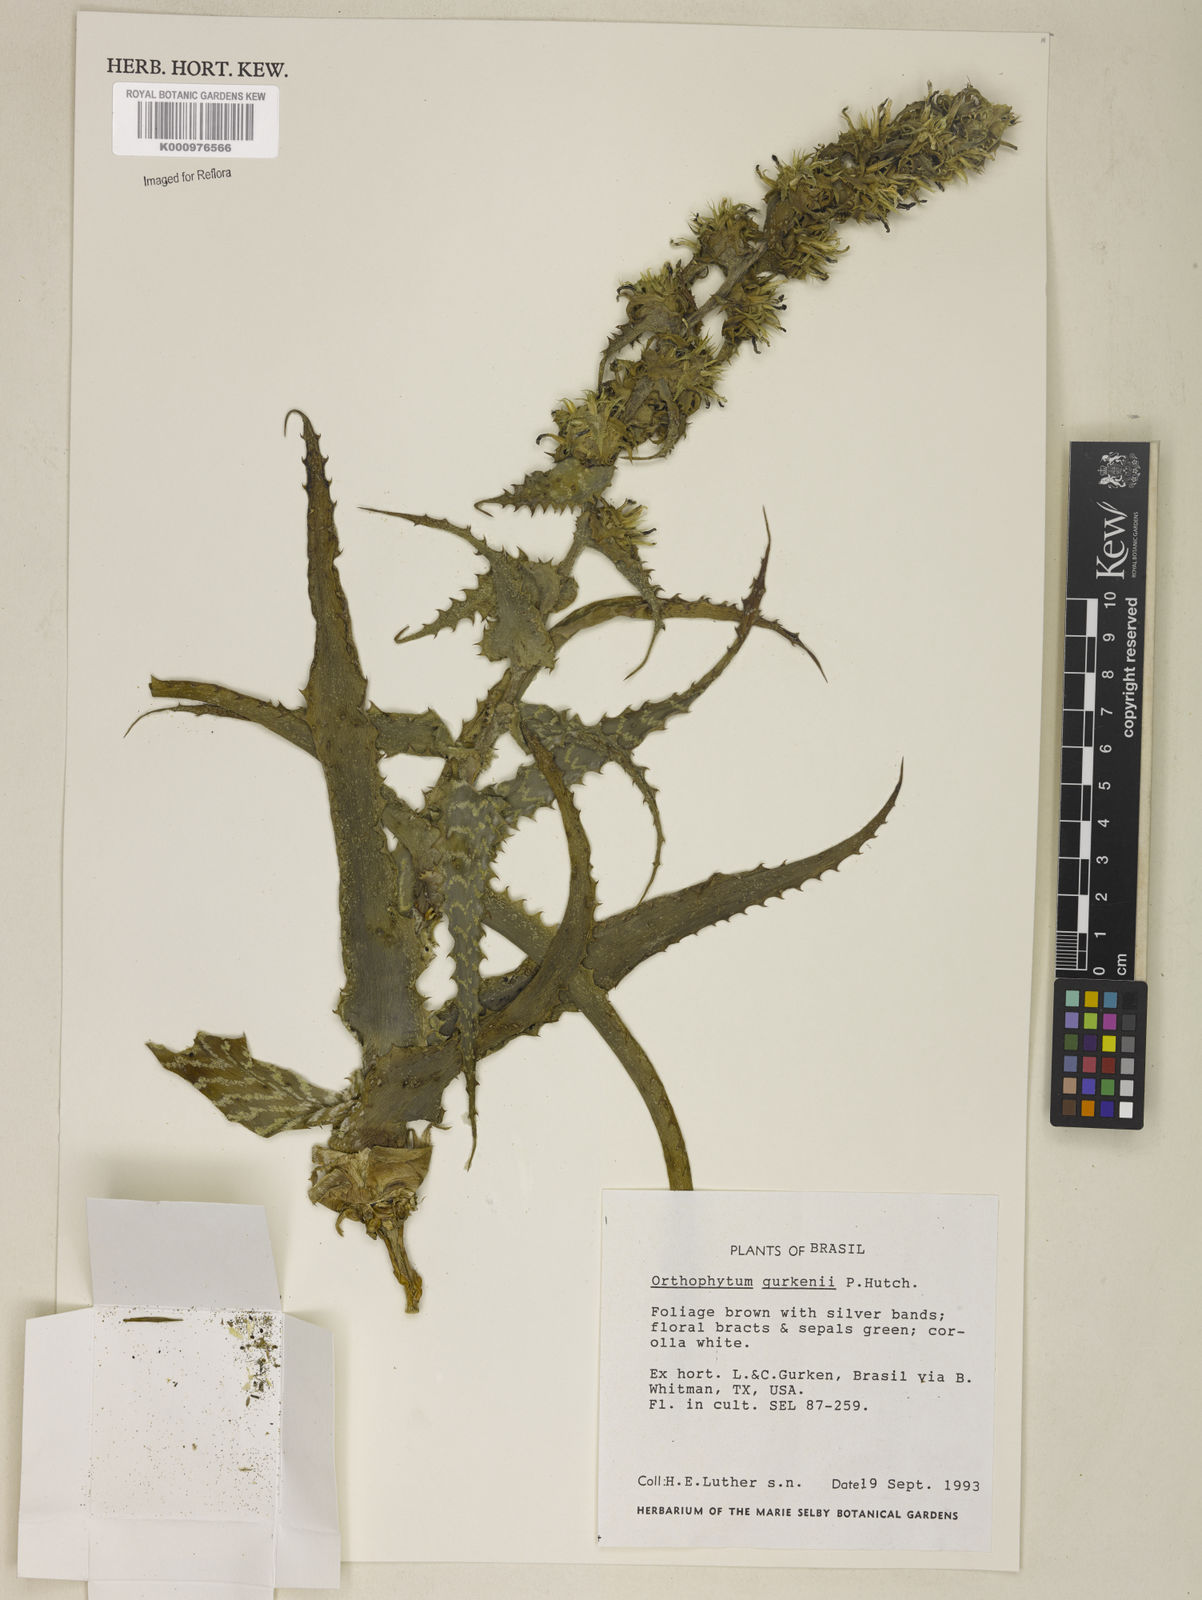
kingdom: Plantae
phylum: Tracheophyta
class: Liliopsida
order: Poales
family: Bromeliaceae
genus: Orthophytum
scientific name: Orthophytum gurkenii
